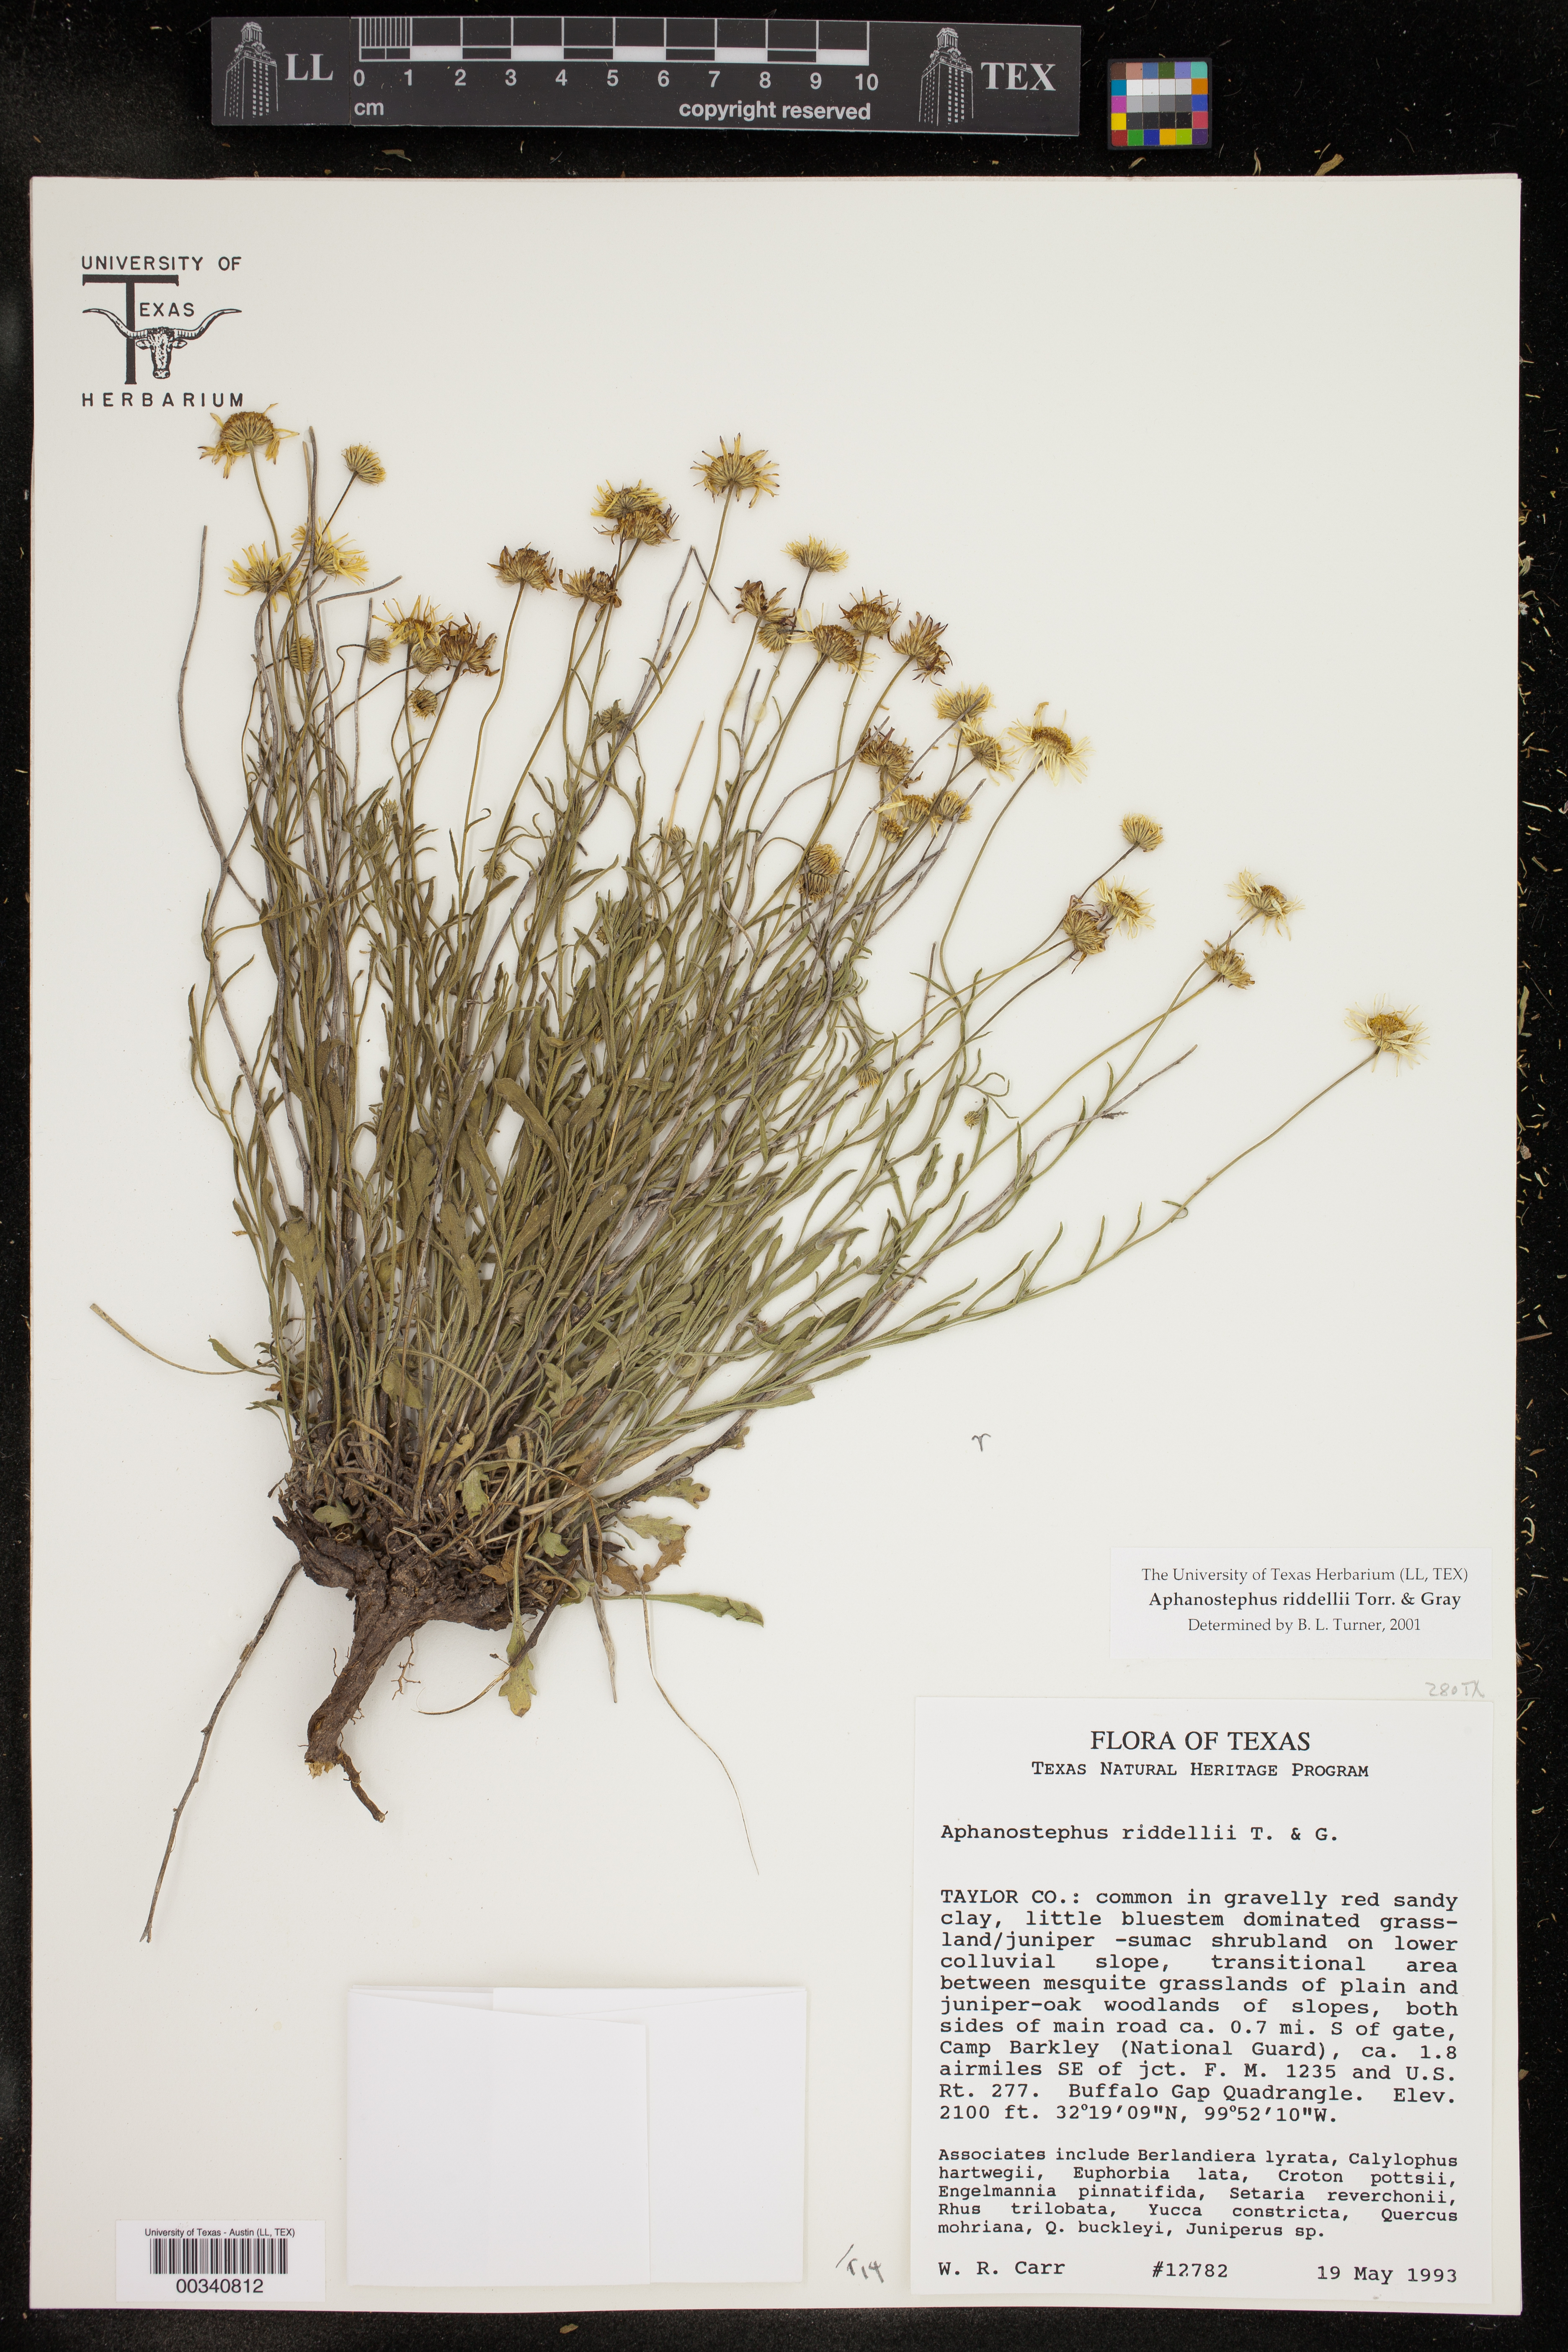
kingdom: Plantae
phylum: Tracheophyta
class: Magnoliopsida
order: Asterales
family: Asteraceae
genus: Aphanostephus
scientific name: Aphanostephus riddellii
